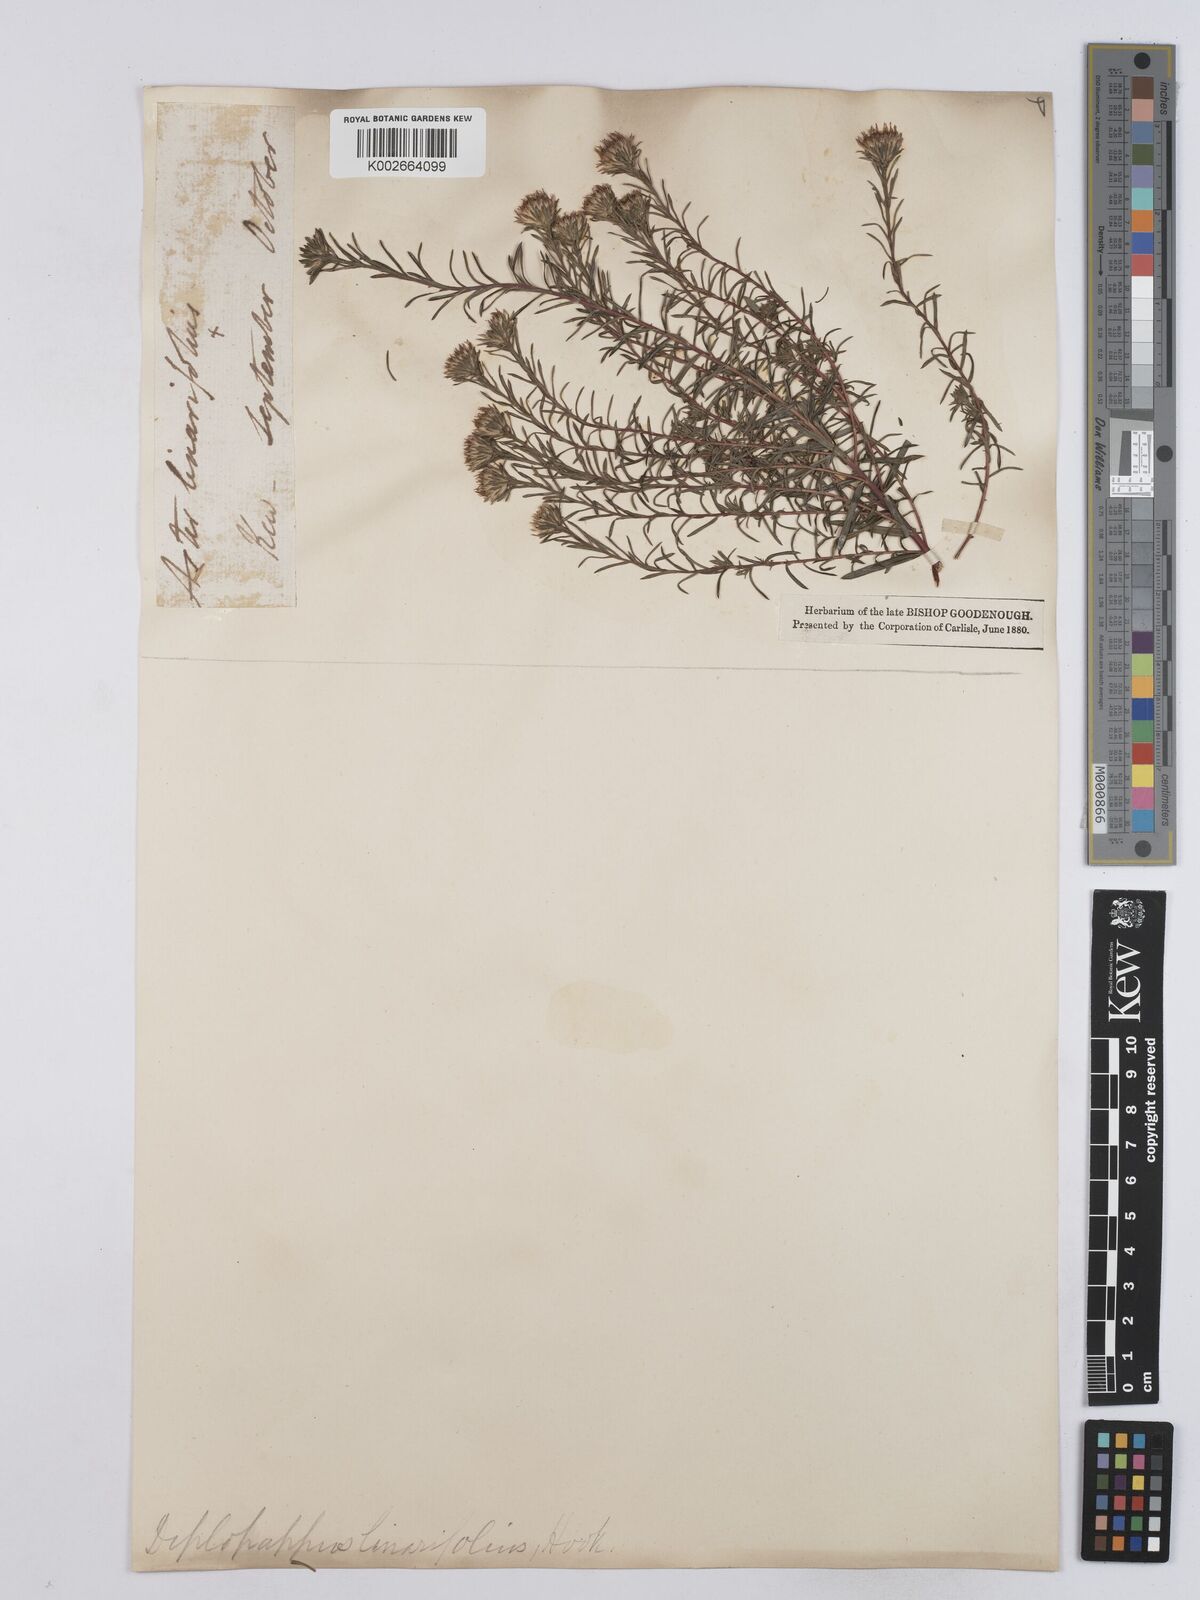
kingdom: Plantae
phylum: Tracheophyta
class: Magnoliopsida
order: Asterales
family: Asteraceae
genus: Ionactis
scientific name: Ionactis linariifolia
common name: Flax-leaf aster
